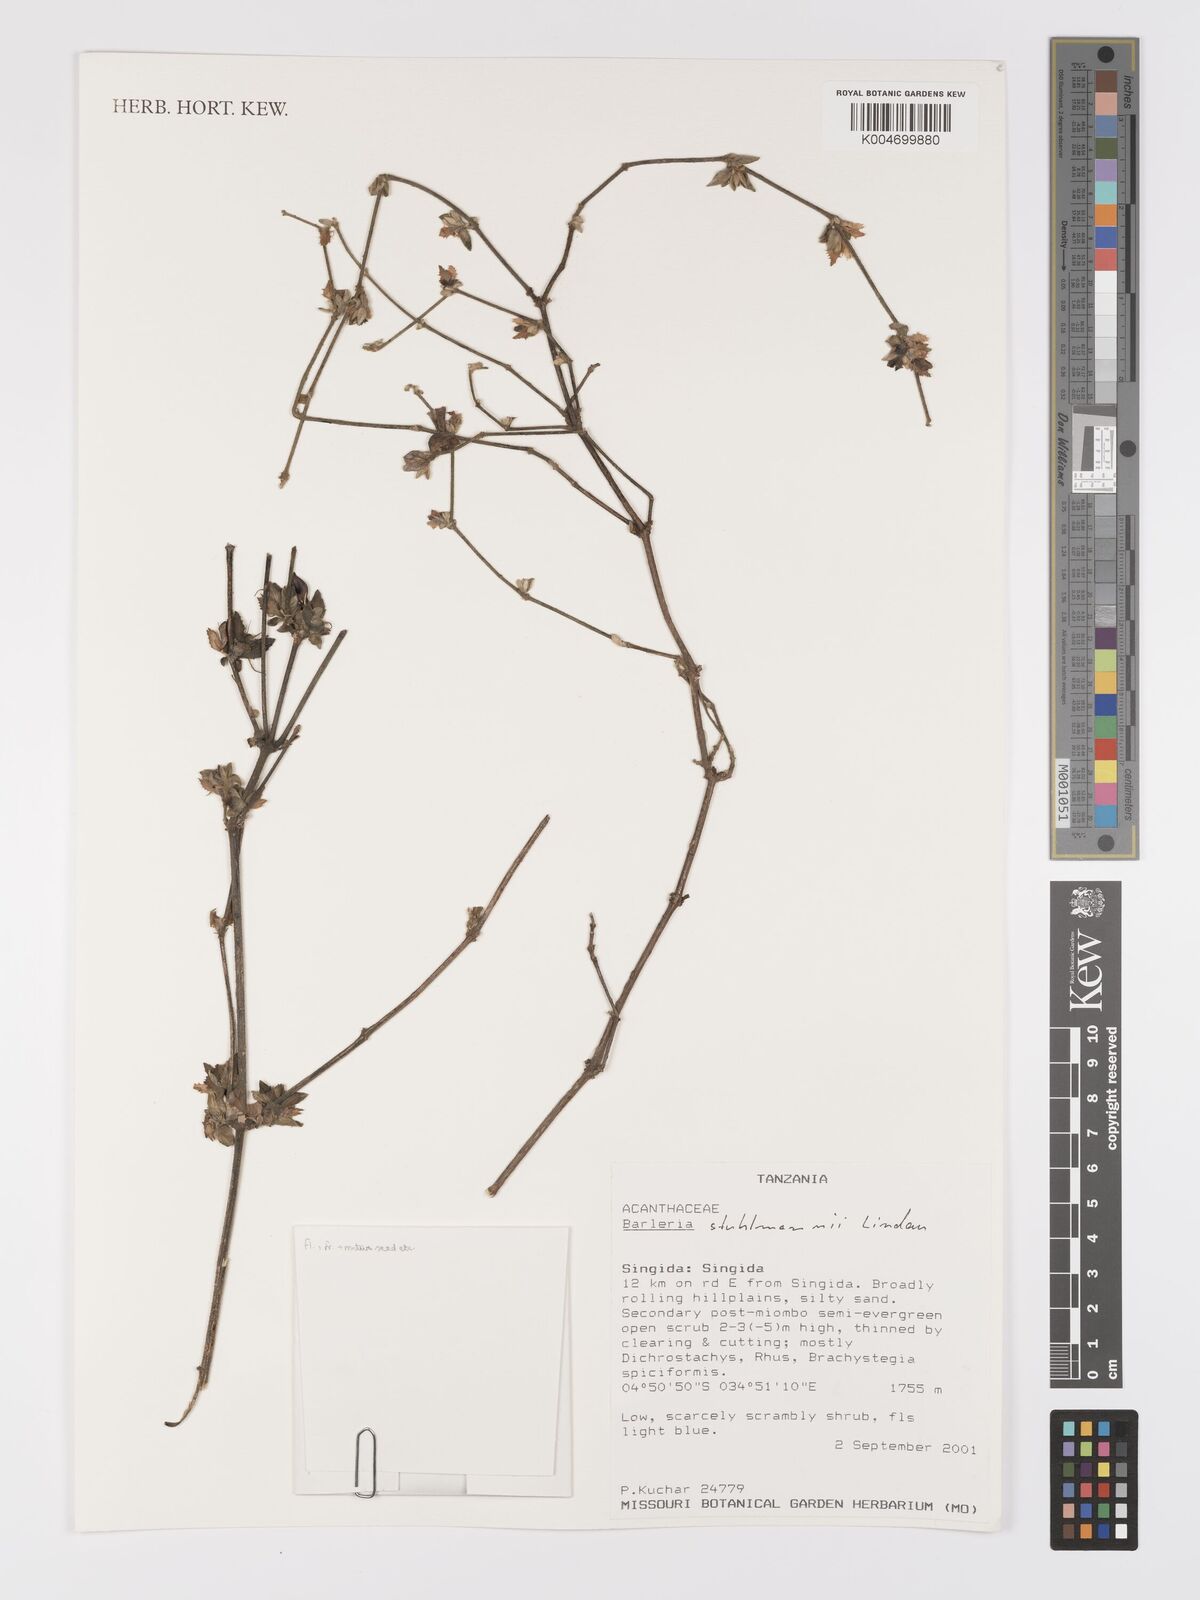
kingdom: Plantae
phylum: Tracheophyta
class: Magnoliopsida
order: Lamiales
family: Acanthaceae
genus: Barleria
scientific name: Barleria ventricosa
